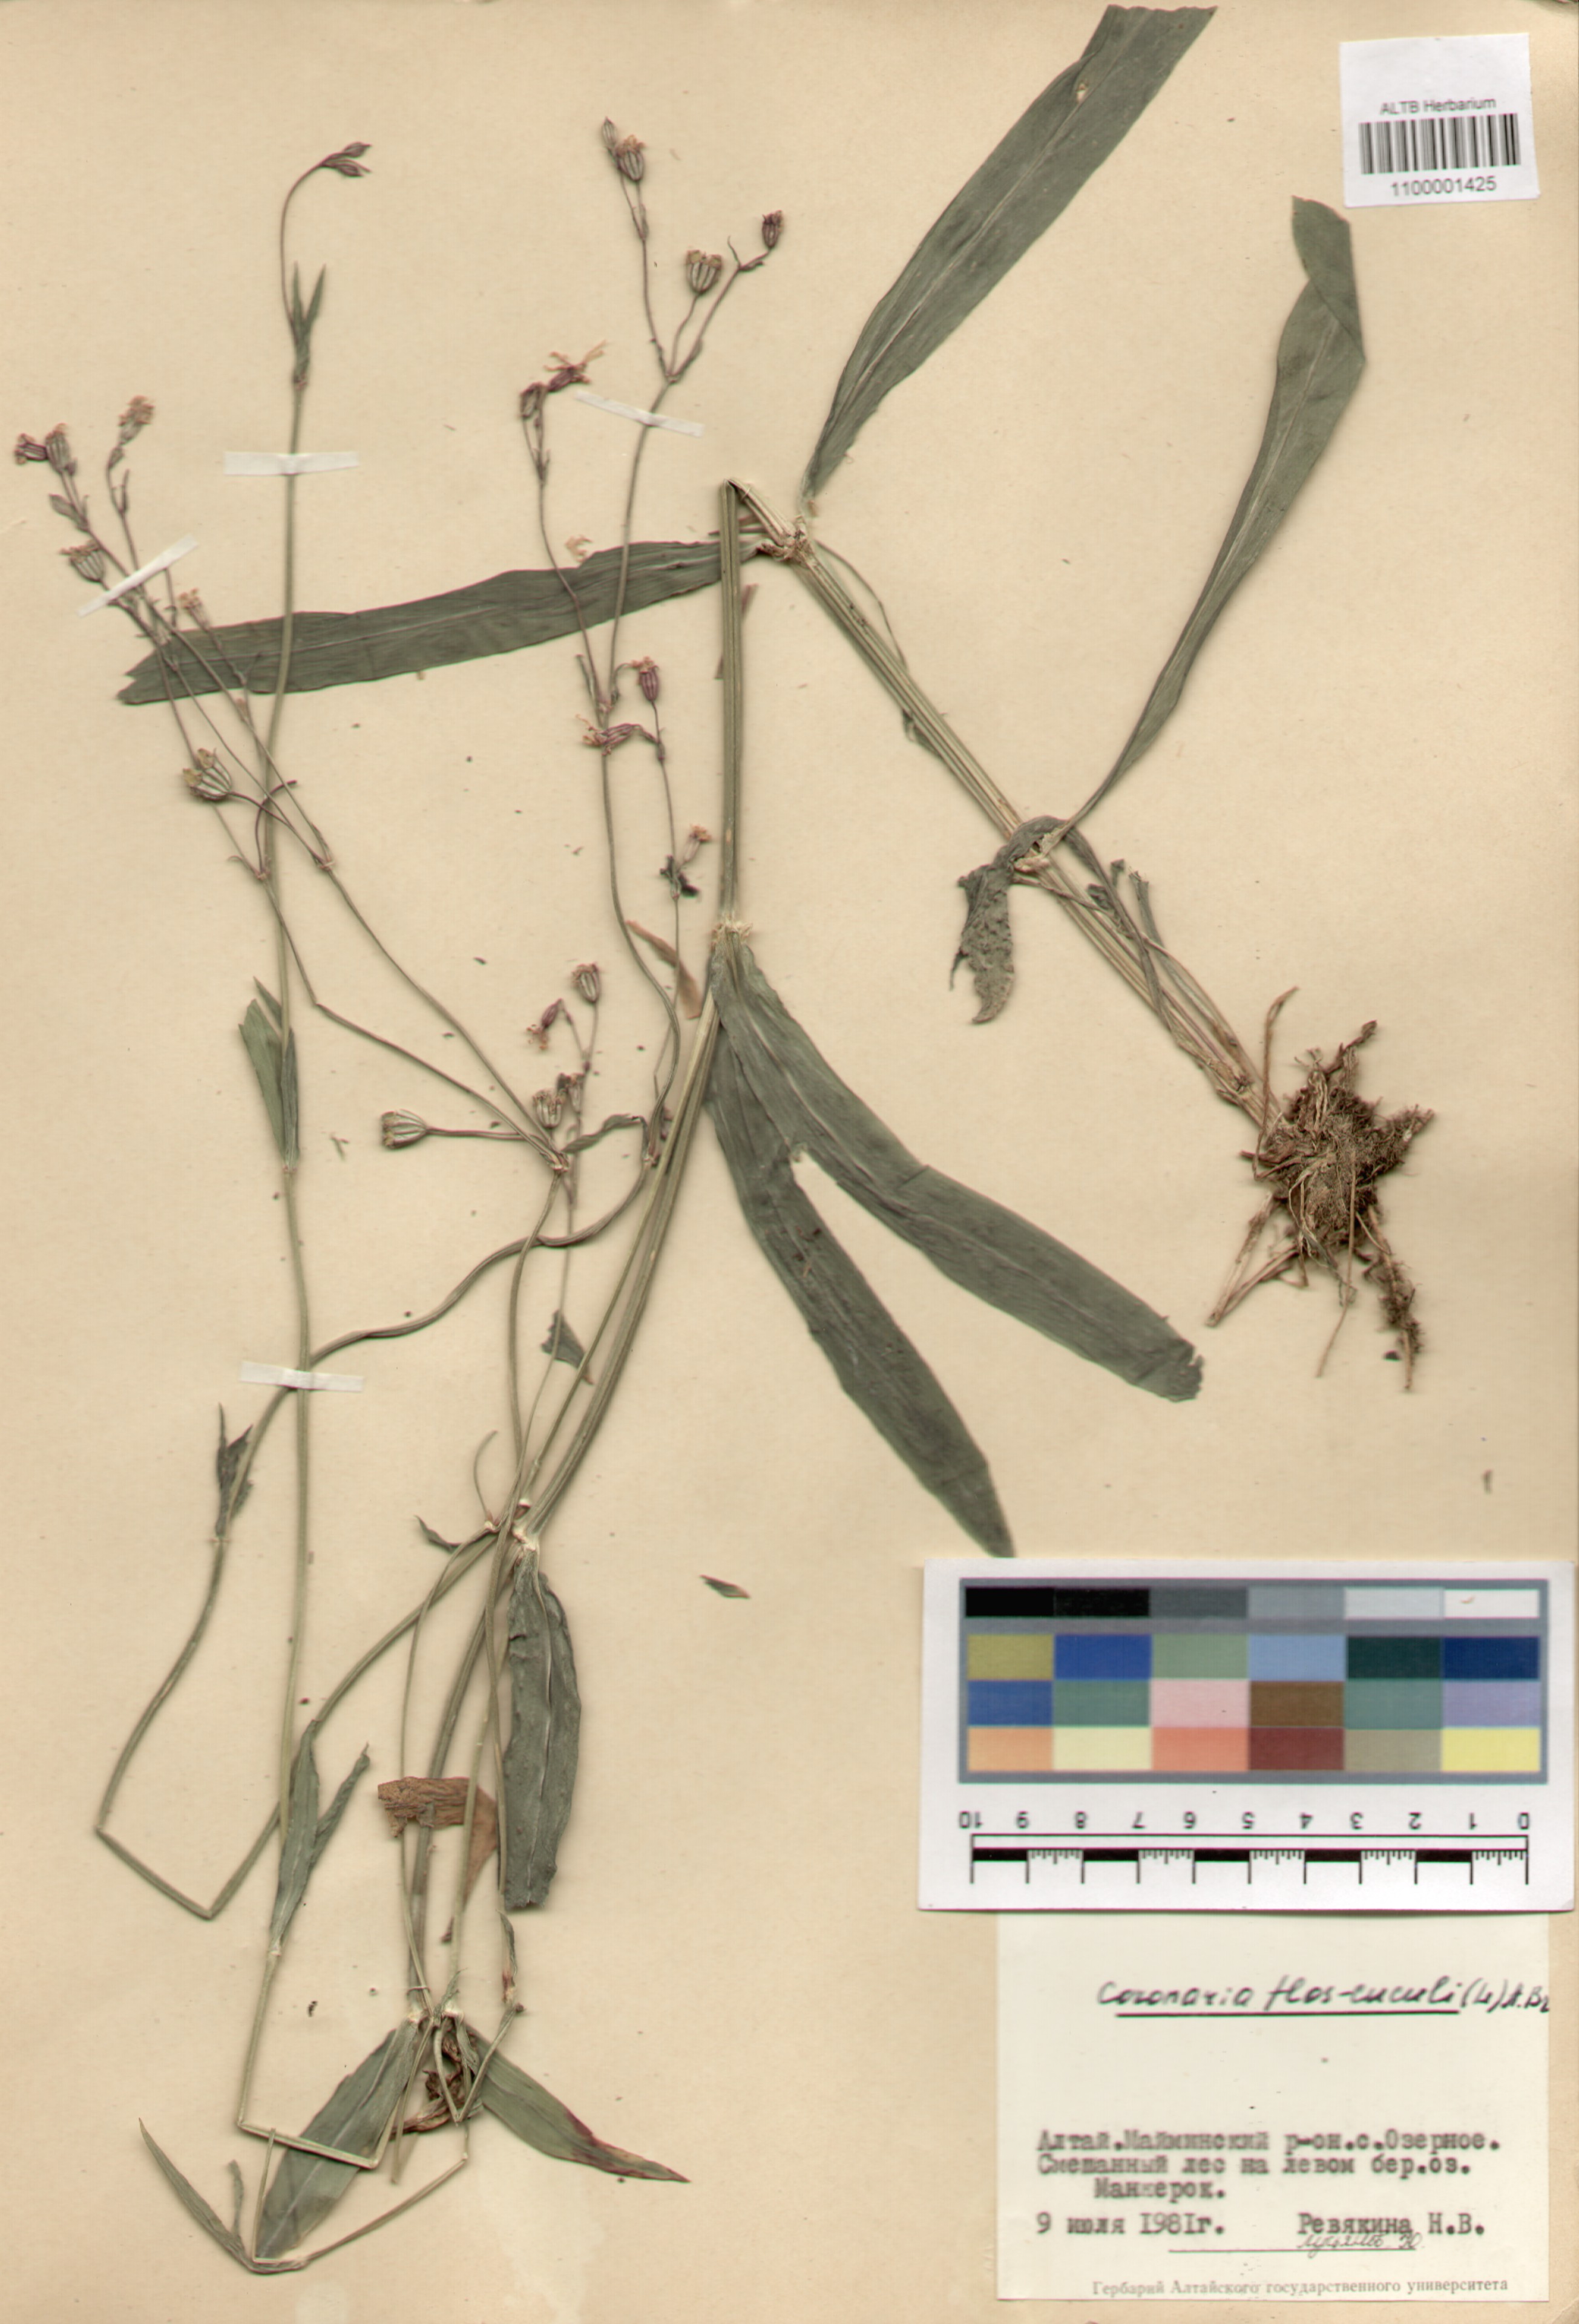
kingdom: Plantae
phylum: Tracheophyta
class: Magnoliopsida
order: Caryophyllales
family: Caryophyllaceae
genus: Silene
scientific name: Silene flos-cuculi
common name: Ragged-robin
